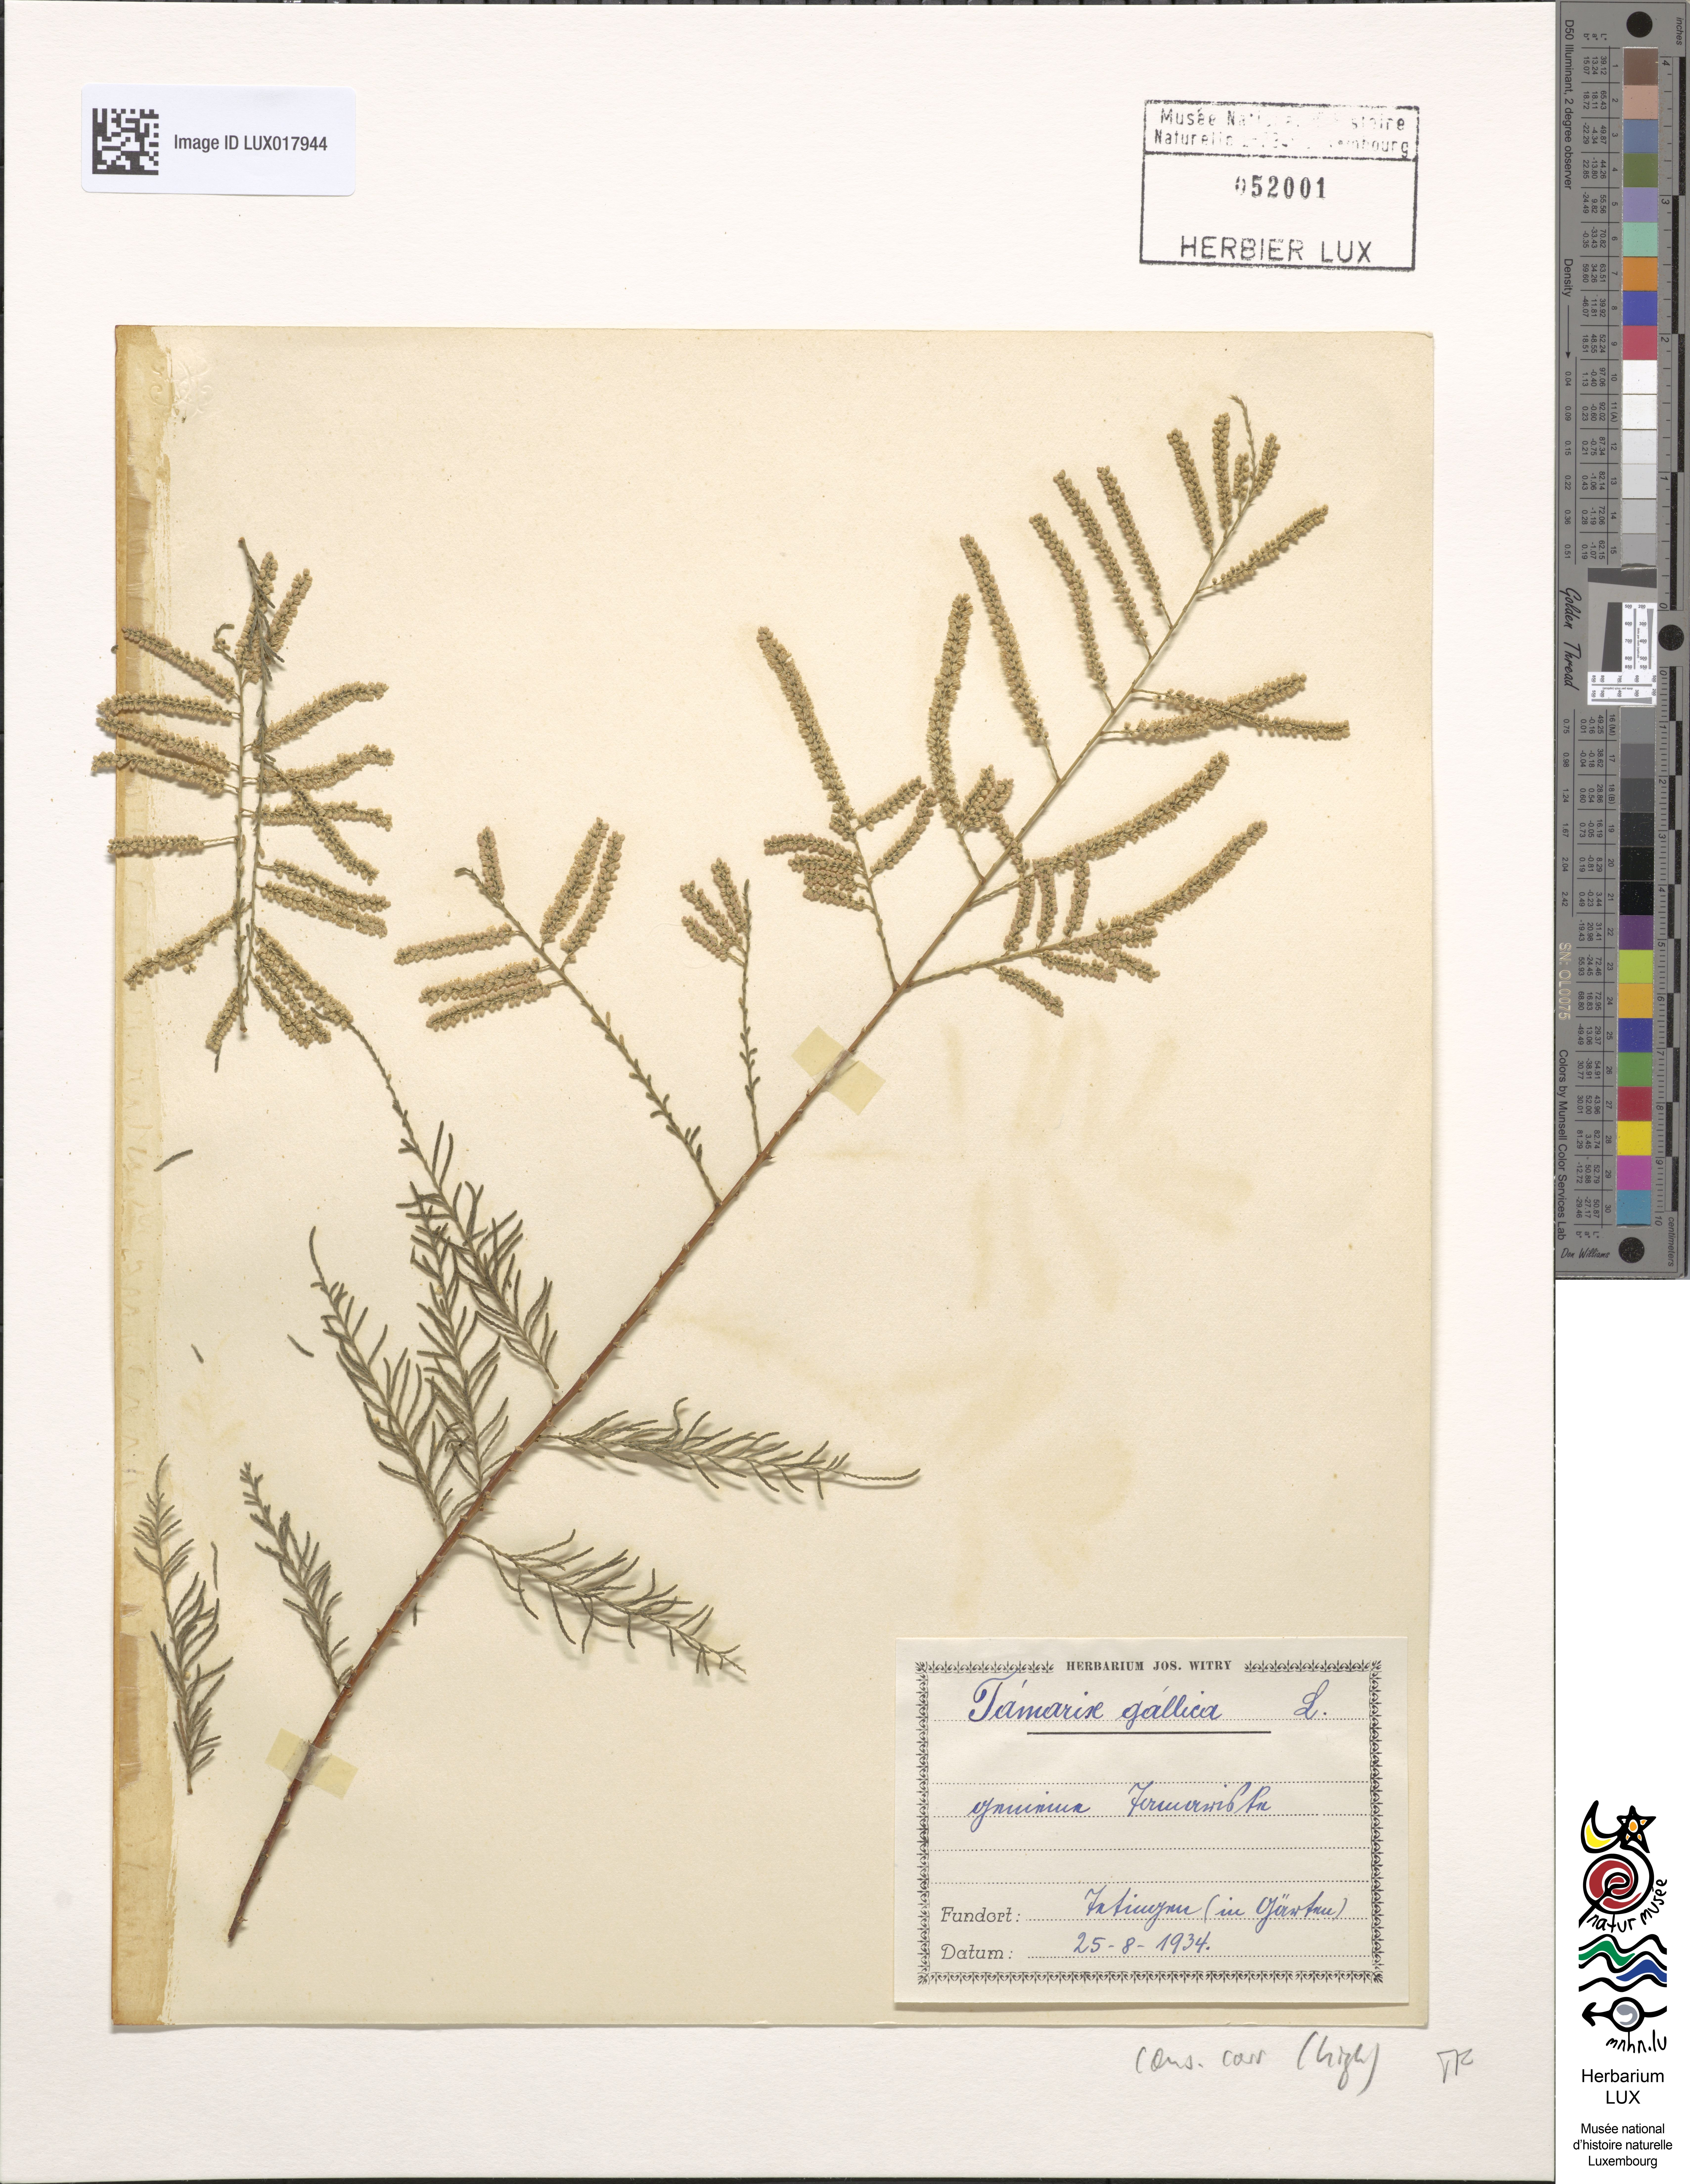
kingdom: Plantae
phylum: Tracheophyta
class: Magnoliopsida
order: Caryophyllales
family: Tamaricaceae
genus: Tamarix
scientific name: Tamarix gallica
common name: Tamarisk
